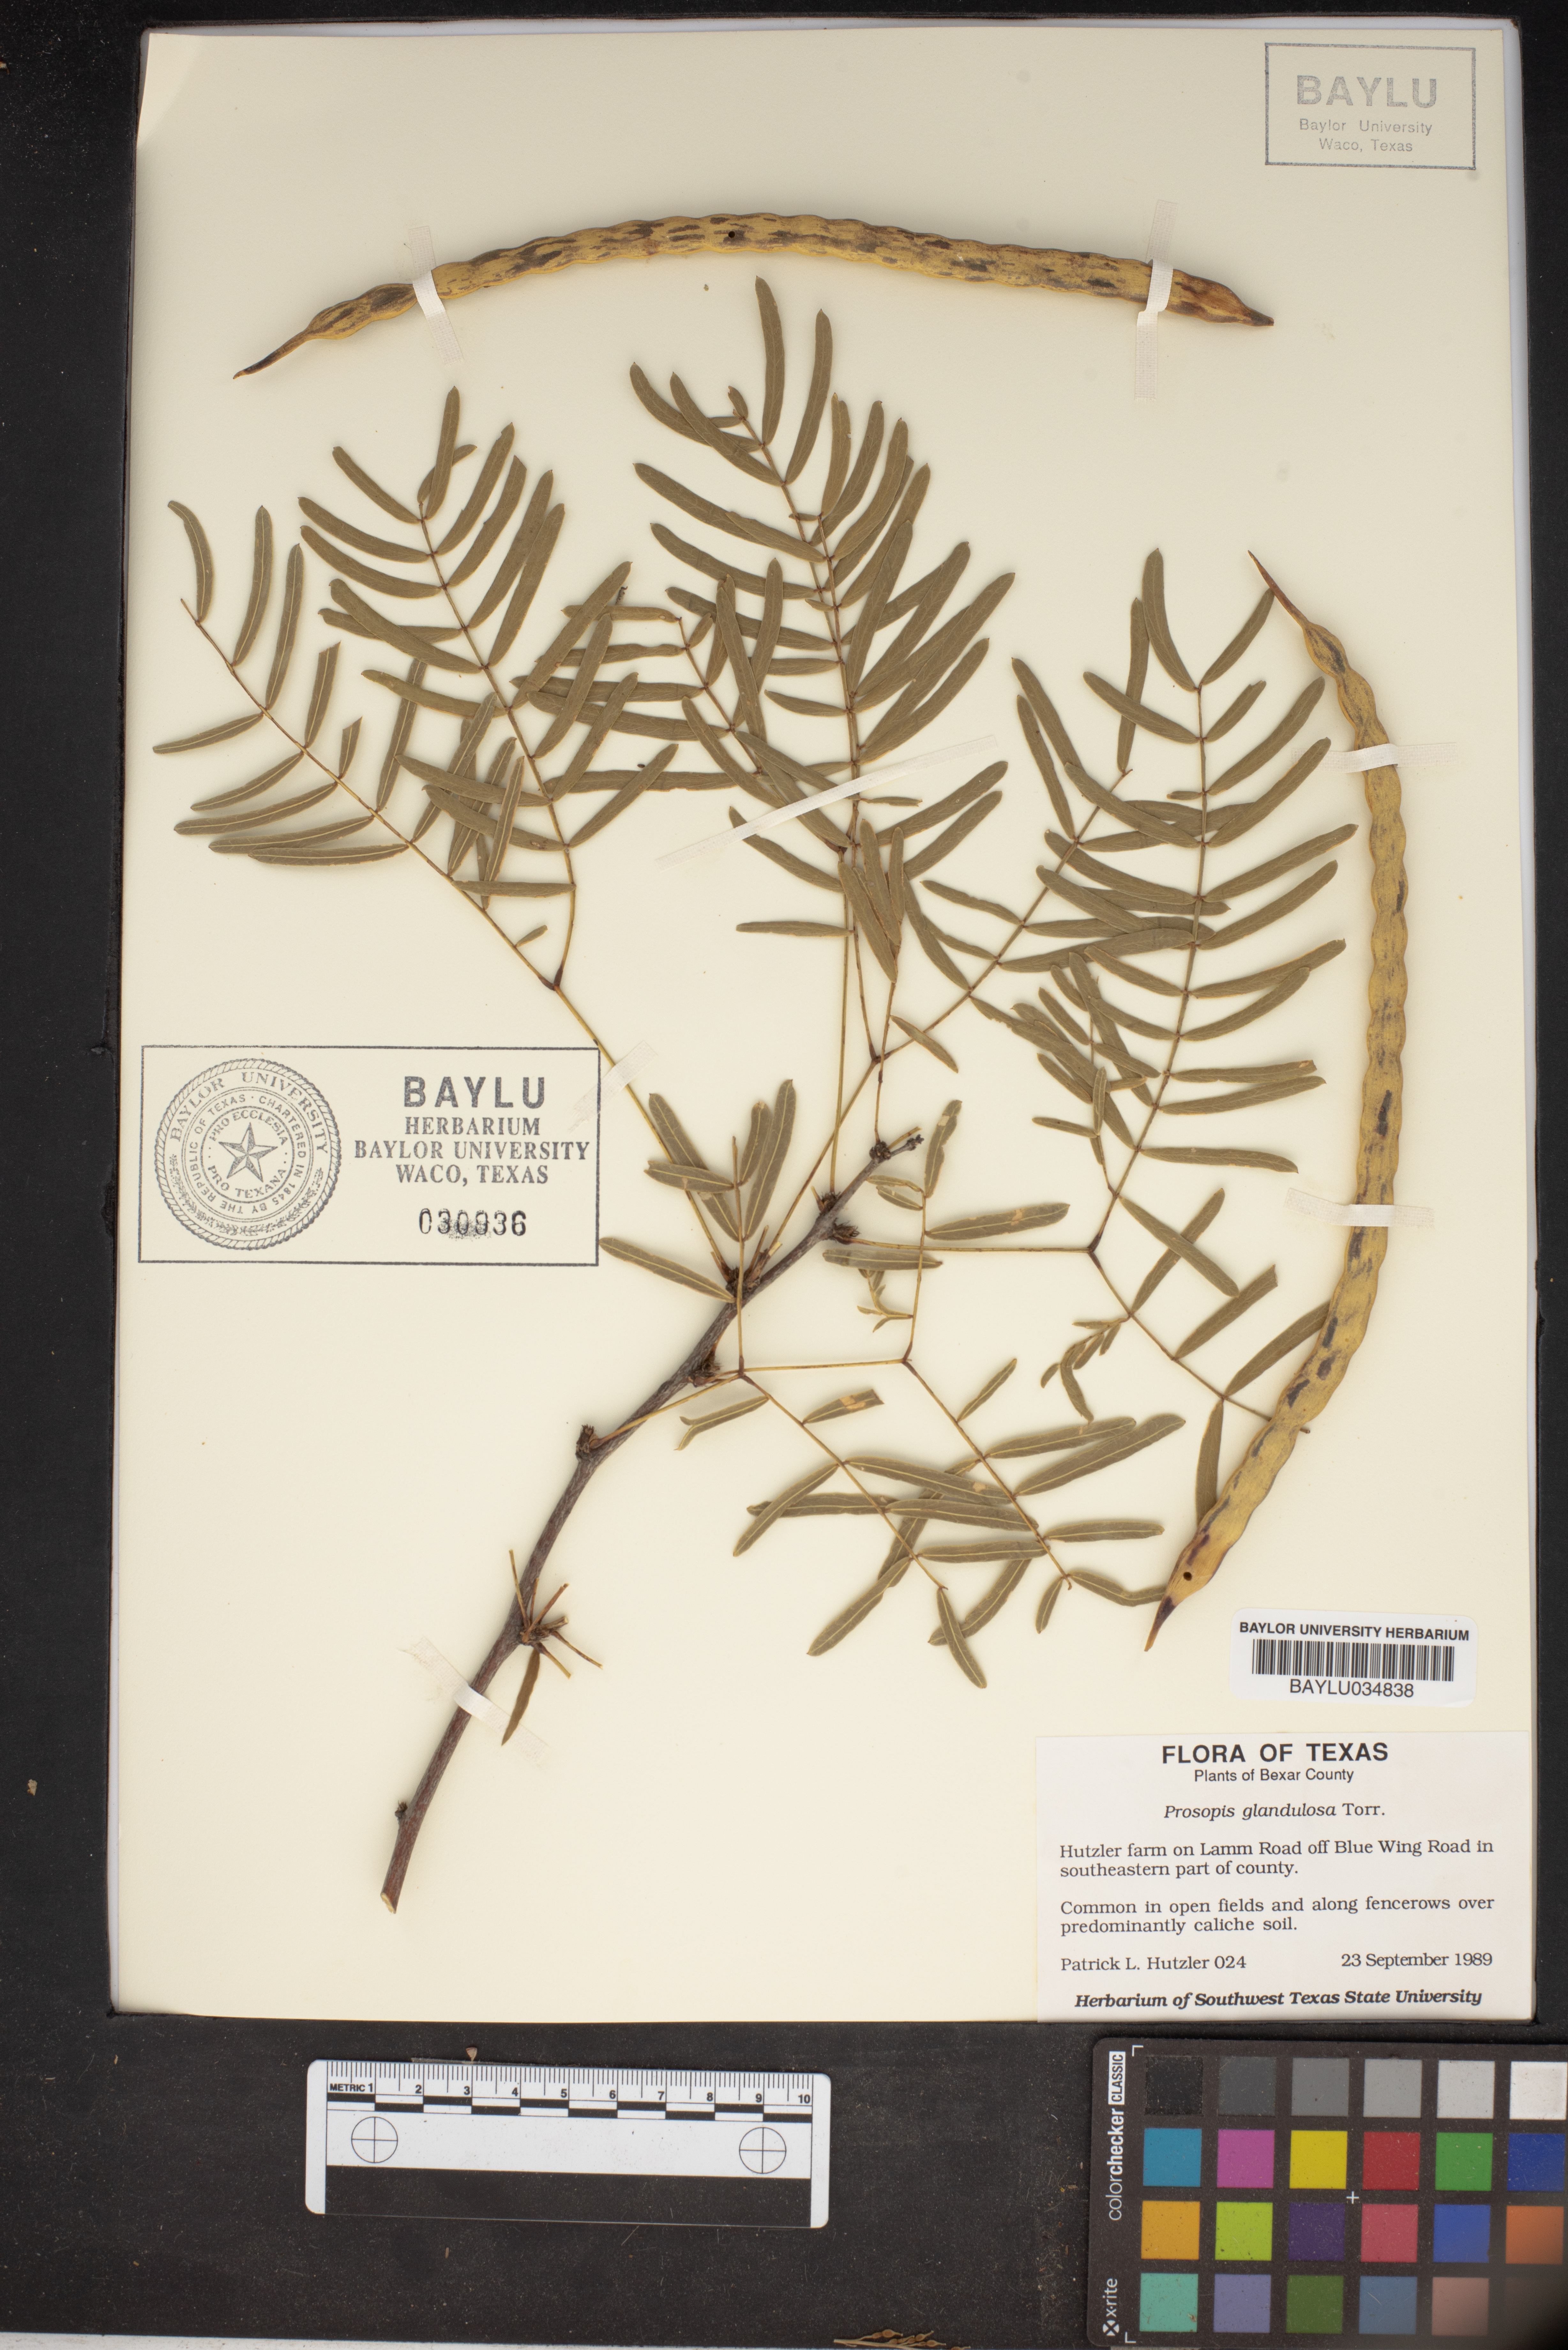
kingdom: Plantae
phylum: Tracheophyta
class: Magnoliopsida
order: Fabales
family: Fabaceae
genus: Prosopis
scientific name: Prosopis glandulosa
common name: Honey mesquite
